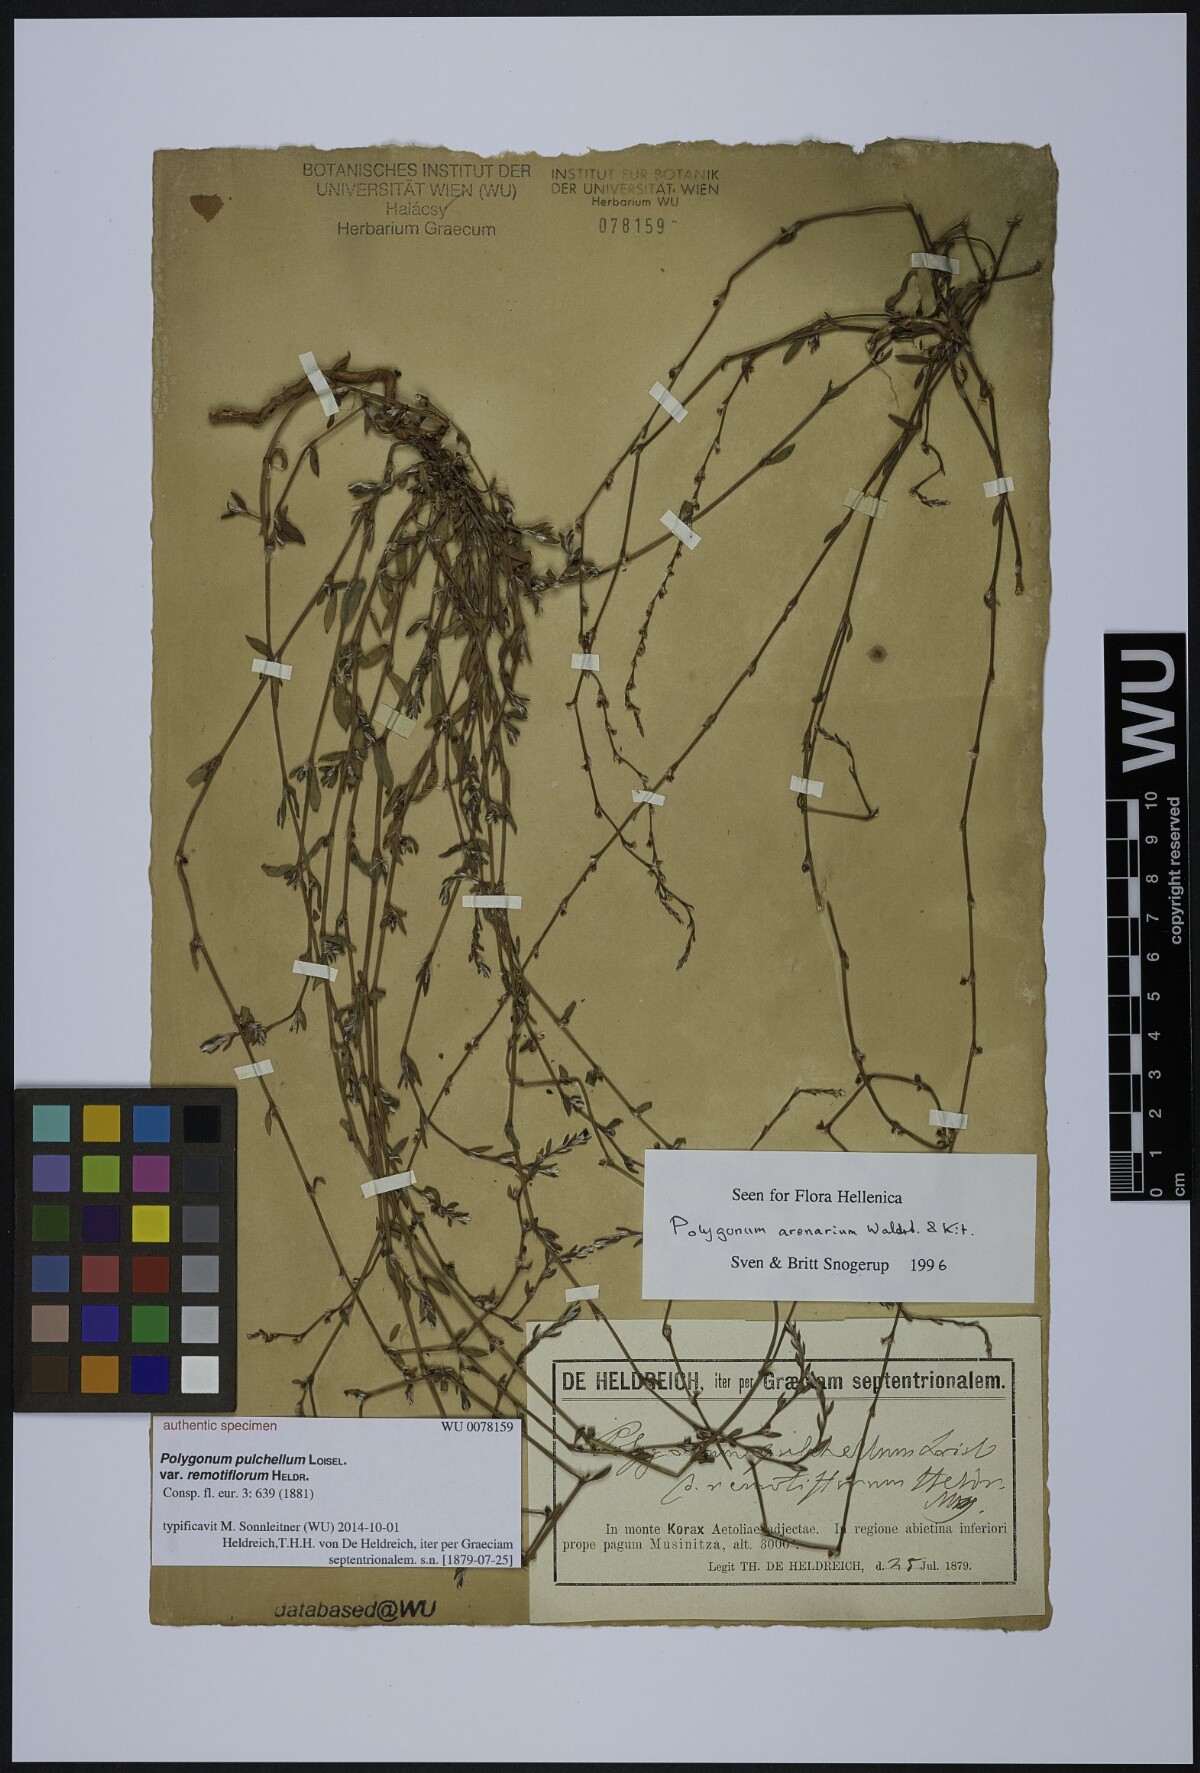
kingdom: Plantae
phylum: Tracheophyta
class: Magnoliopsida
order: Caryophyllales
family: Polygonaceae
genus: Polygonum
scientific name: Polygonum arenarium
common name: Lesser red-knotgrass
